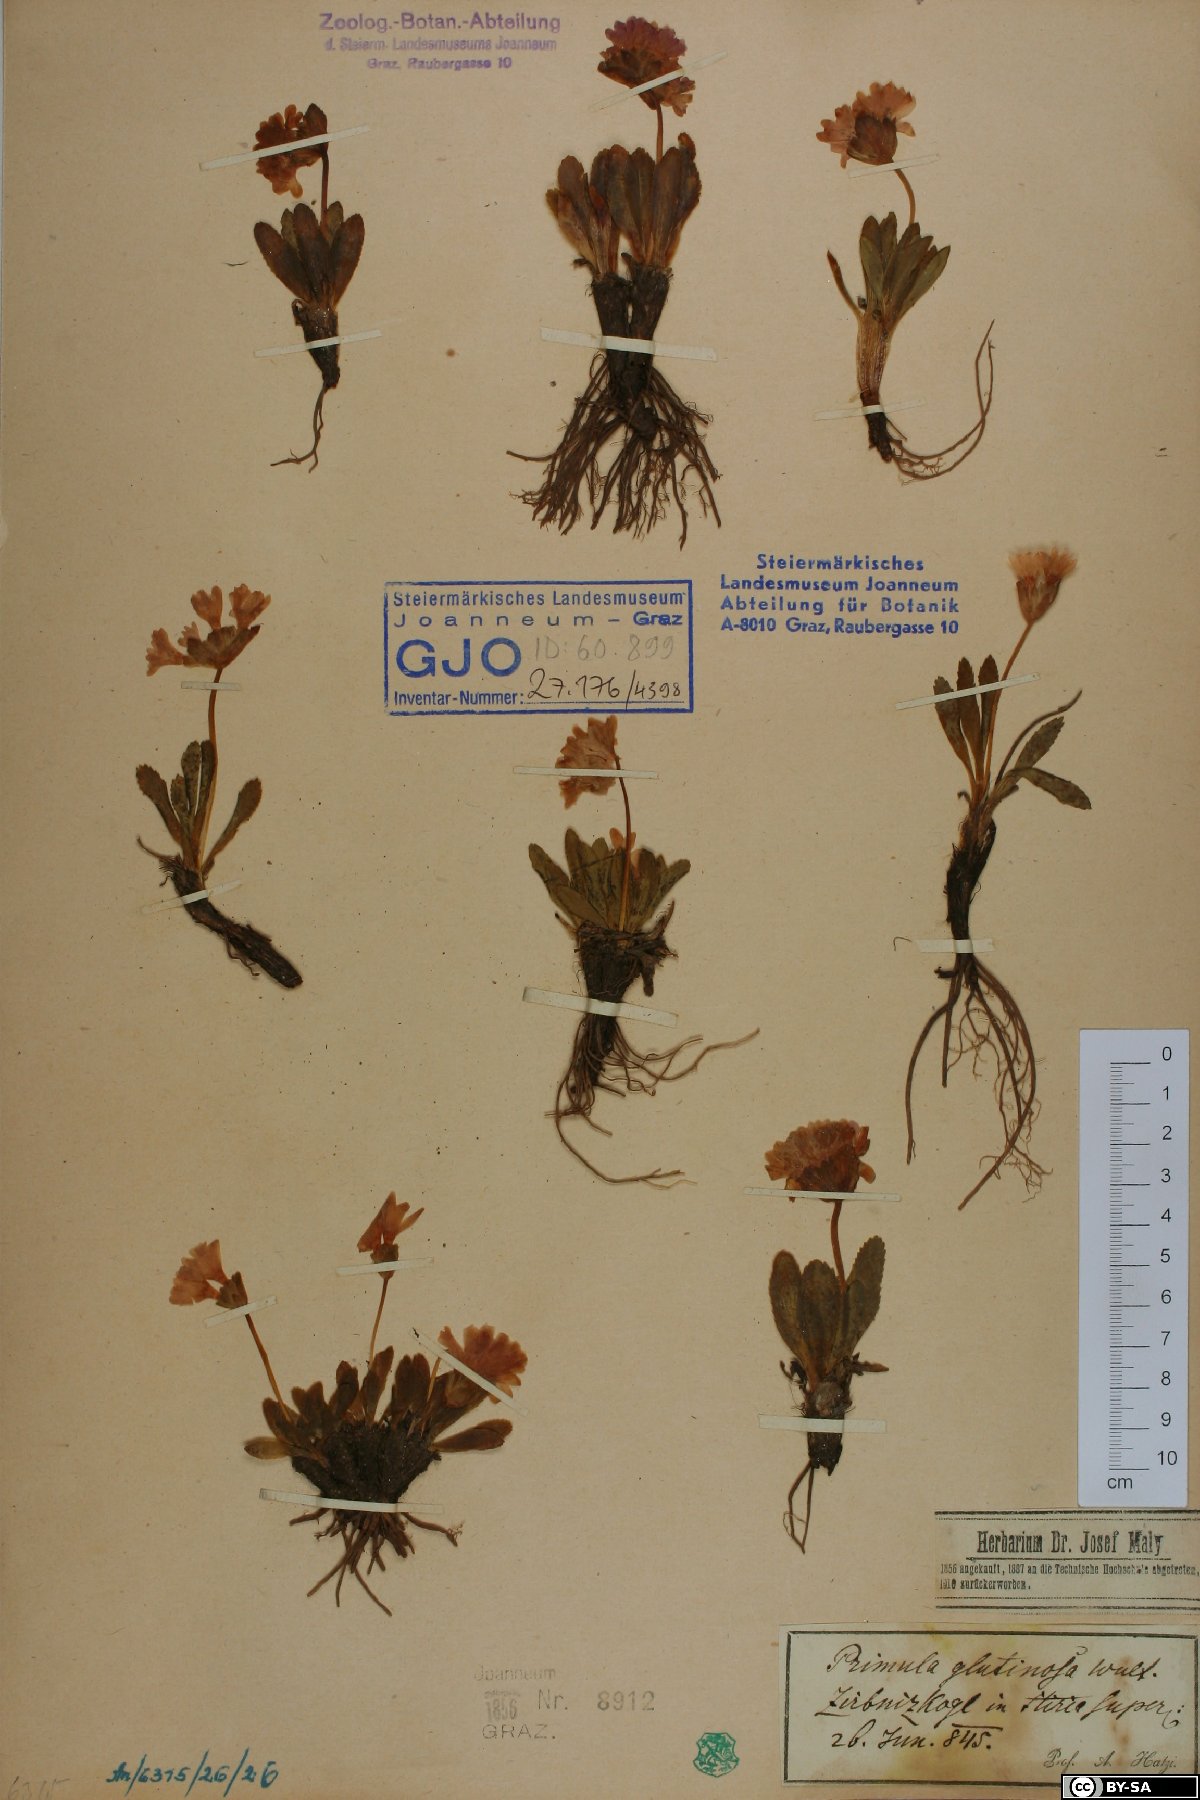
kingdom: Plantae
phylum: Tracheophyta
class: Magnoliopsida
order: Ericales
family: Primulaceae
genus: Primula
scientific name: Primula glutinosa
